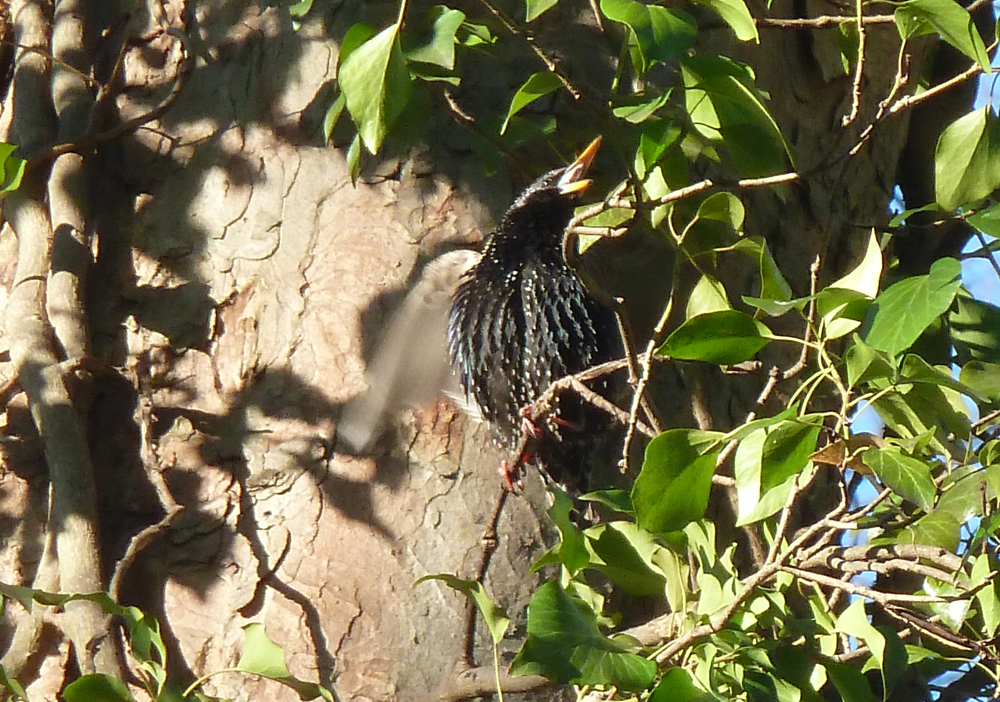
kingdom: Animalia
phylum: Chordata
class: Aves
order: Passeriformes
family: Sturnidae
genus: Sturnus
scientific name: Sturnus vulgaris
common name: Common starling
